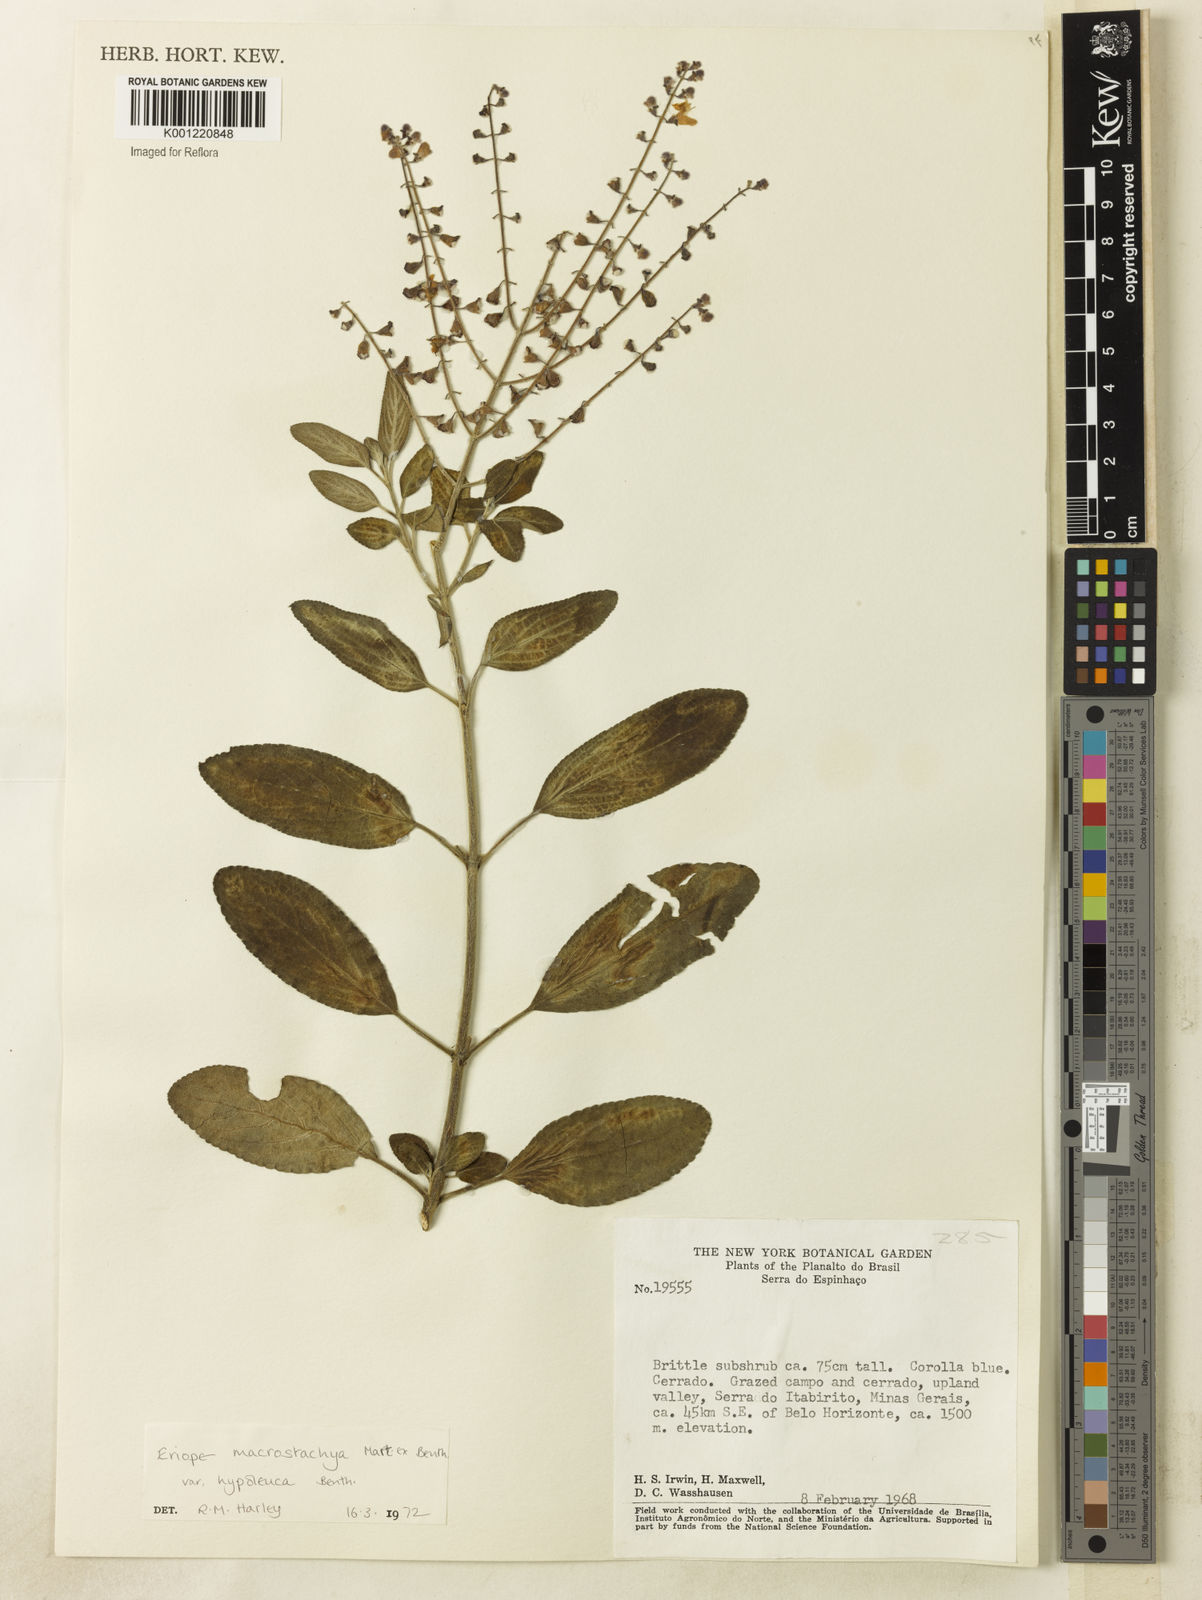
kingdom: Plantae
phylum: Tracheophyta
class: Magnoliopsida
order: Lamiales
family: Lamiaceae
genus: Eriope
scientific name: Eriope macrostachya
